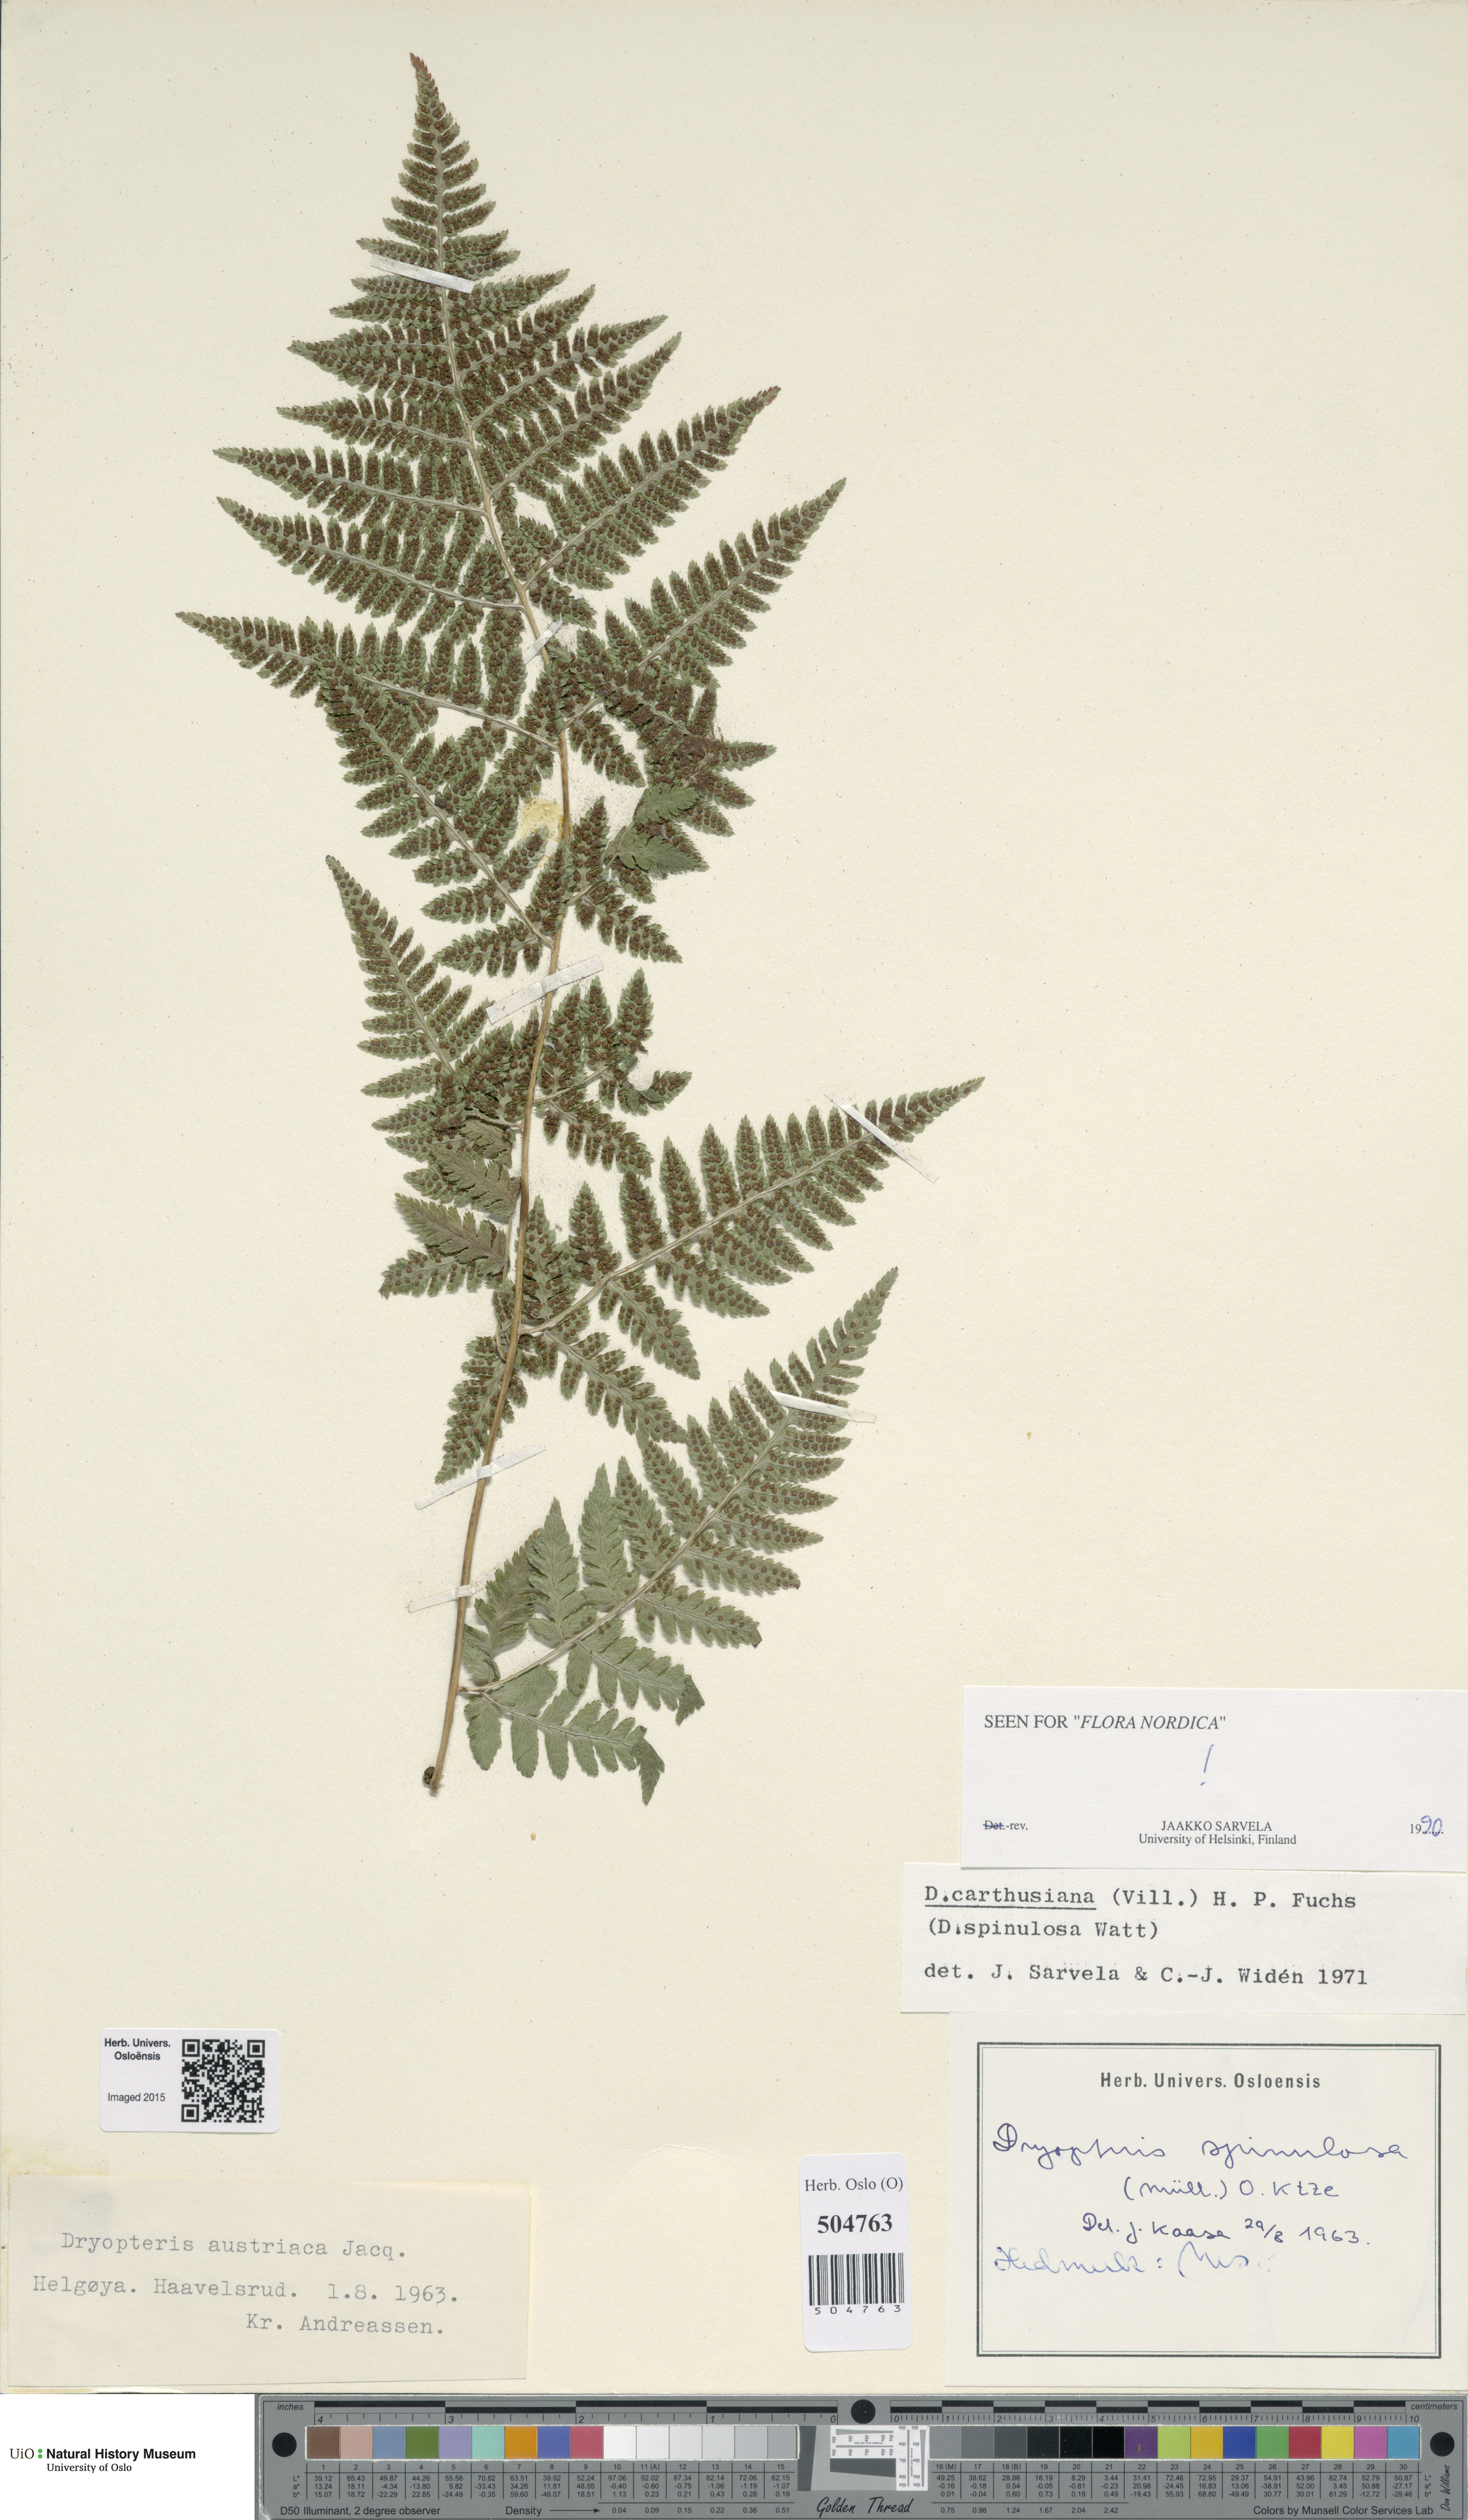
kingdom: Plantae
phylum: Tracheophyta
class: Polypodiopsida
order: Polypodiales
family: Dryopteridaceae
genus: Dryopteris
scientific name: Dryopteris carthusiana
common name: Narrow buckler-fern
